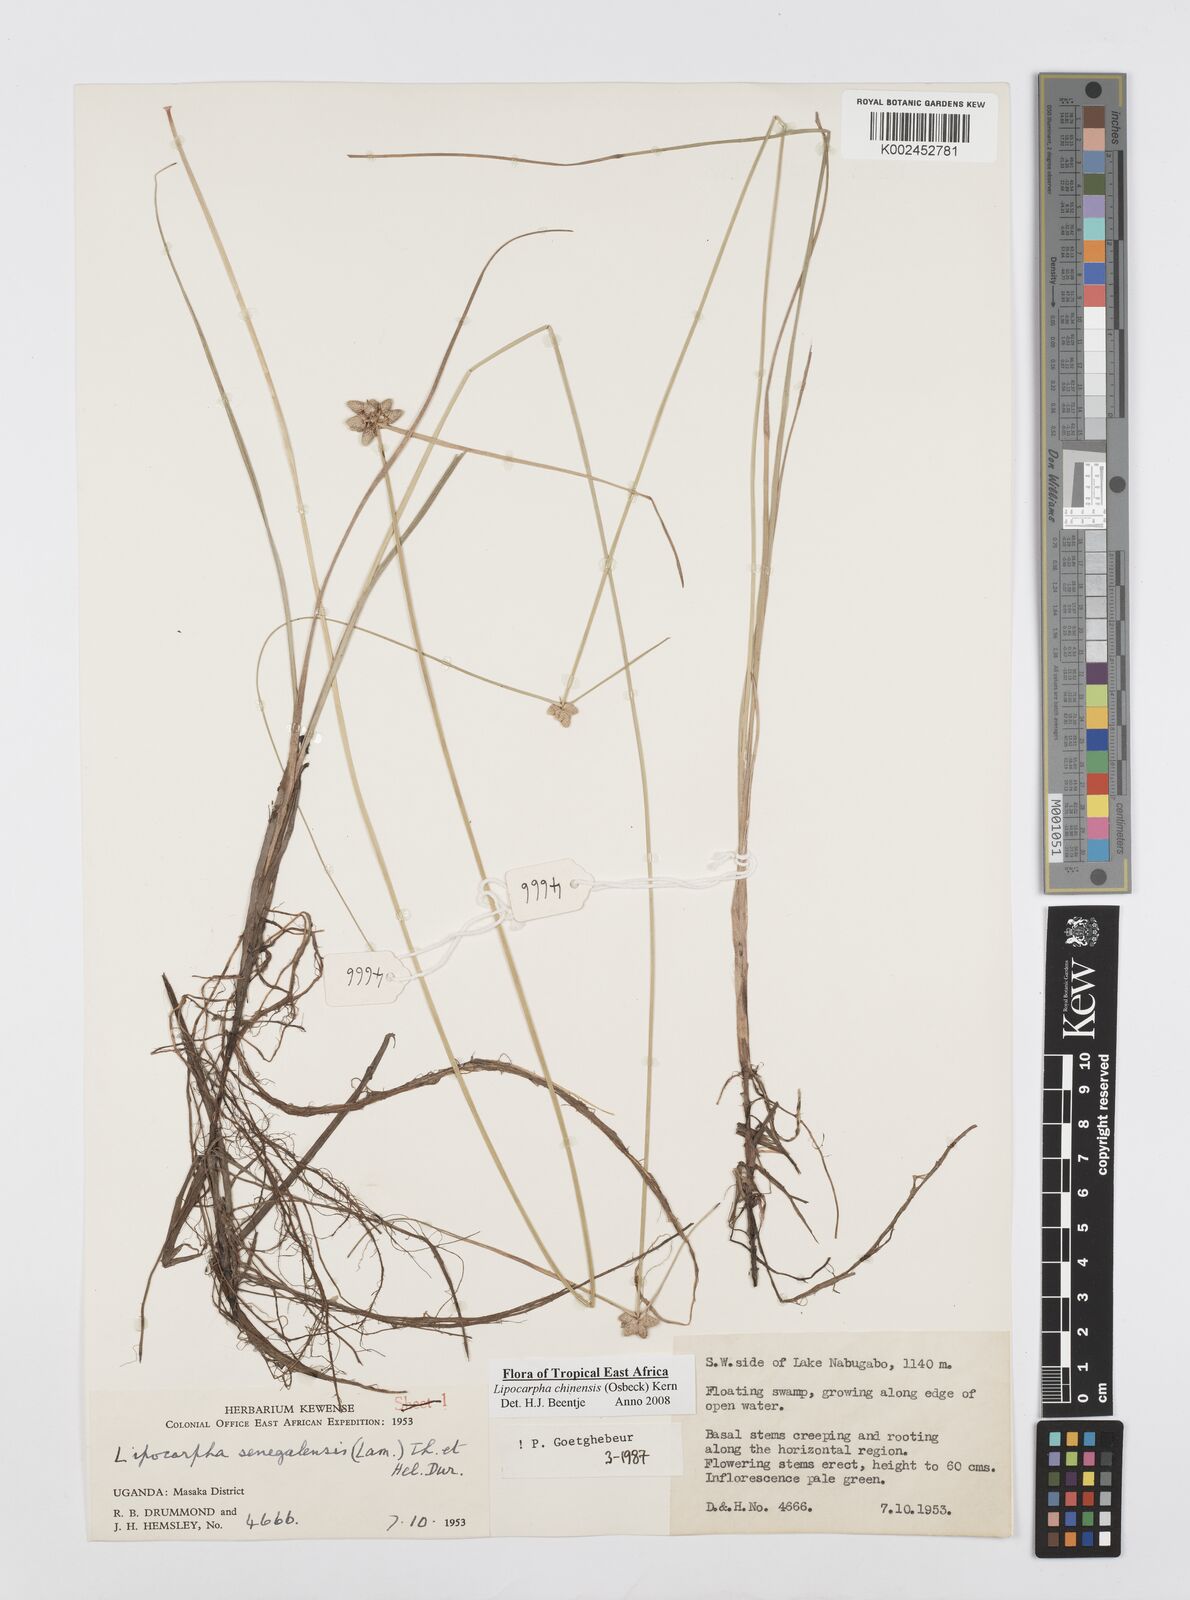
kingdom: Plantae
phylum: Tracheophyta
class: Liliopsida
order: Poales
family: Cyperaceae
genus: Cyperus
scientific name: Cyperus albescens
